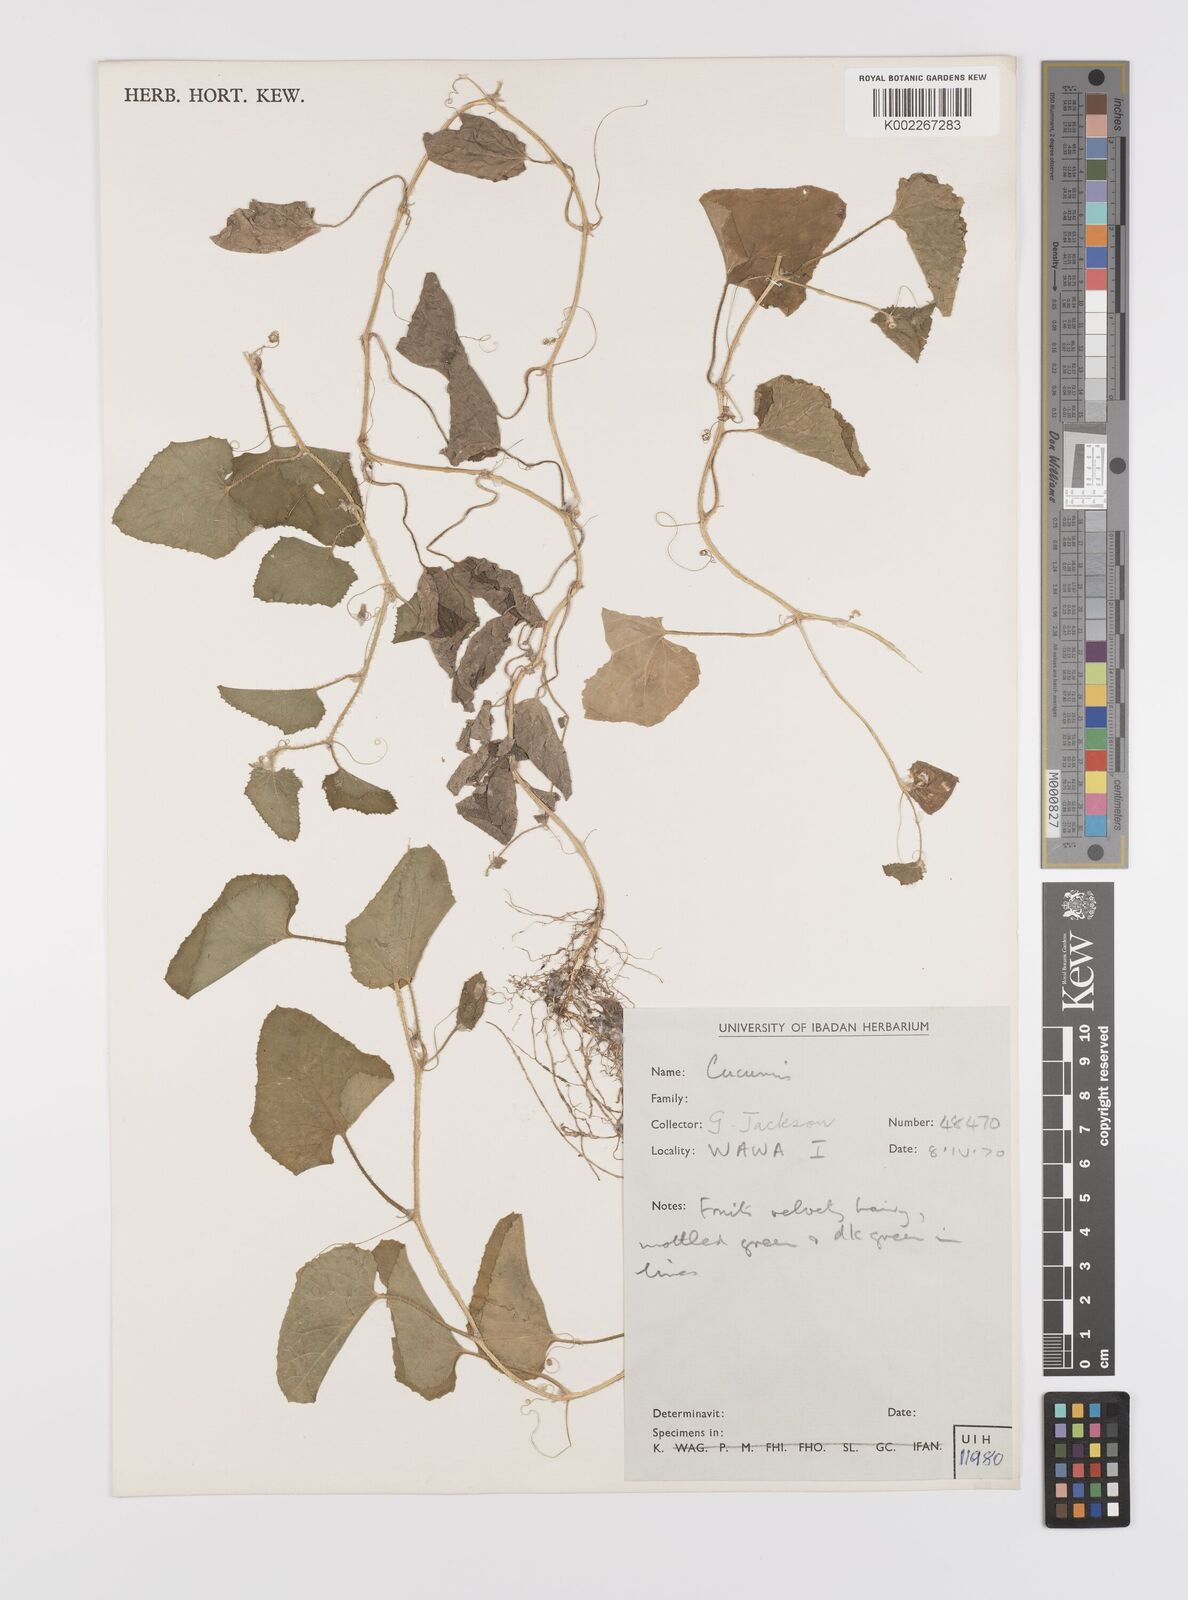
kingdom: Plantae
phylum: Tracheophyta
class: Magnoliopsida
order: Cucurbitales
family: Cucurbitaceae
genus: Cucumis
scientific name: Cucumis melo
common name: Melon
